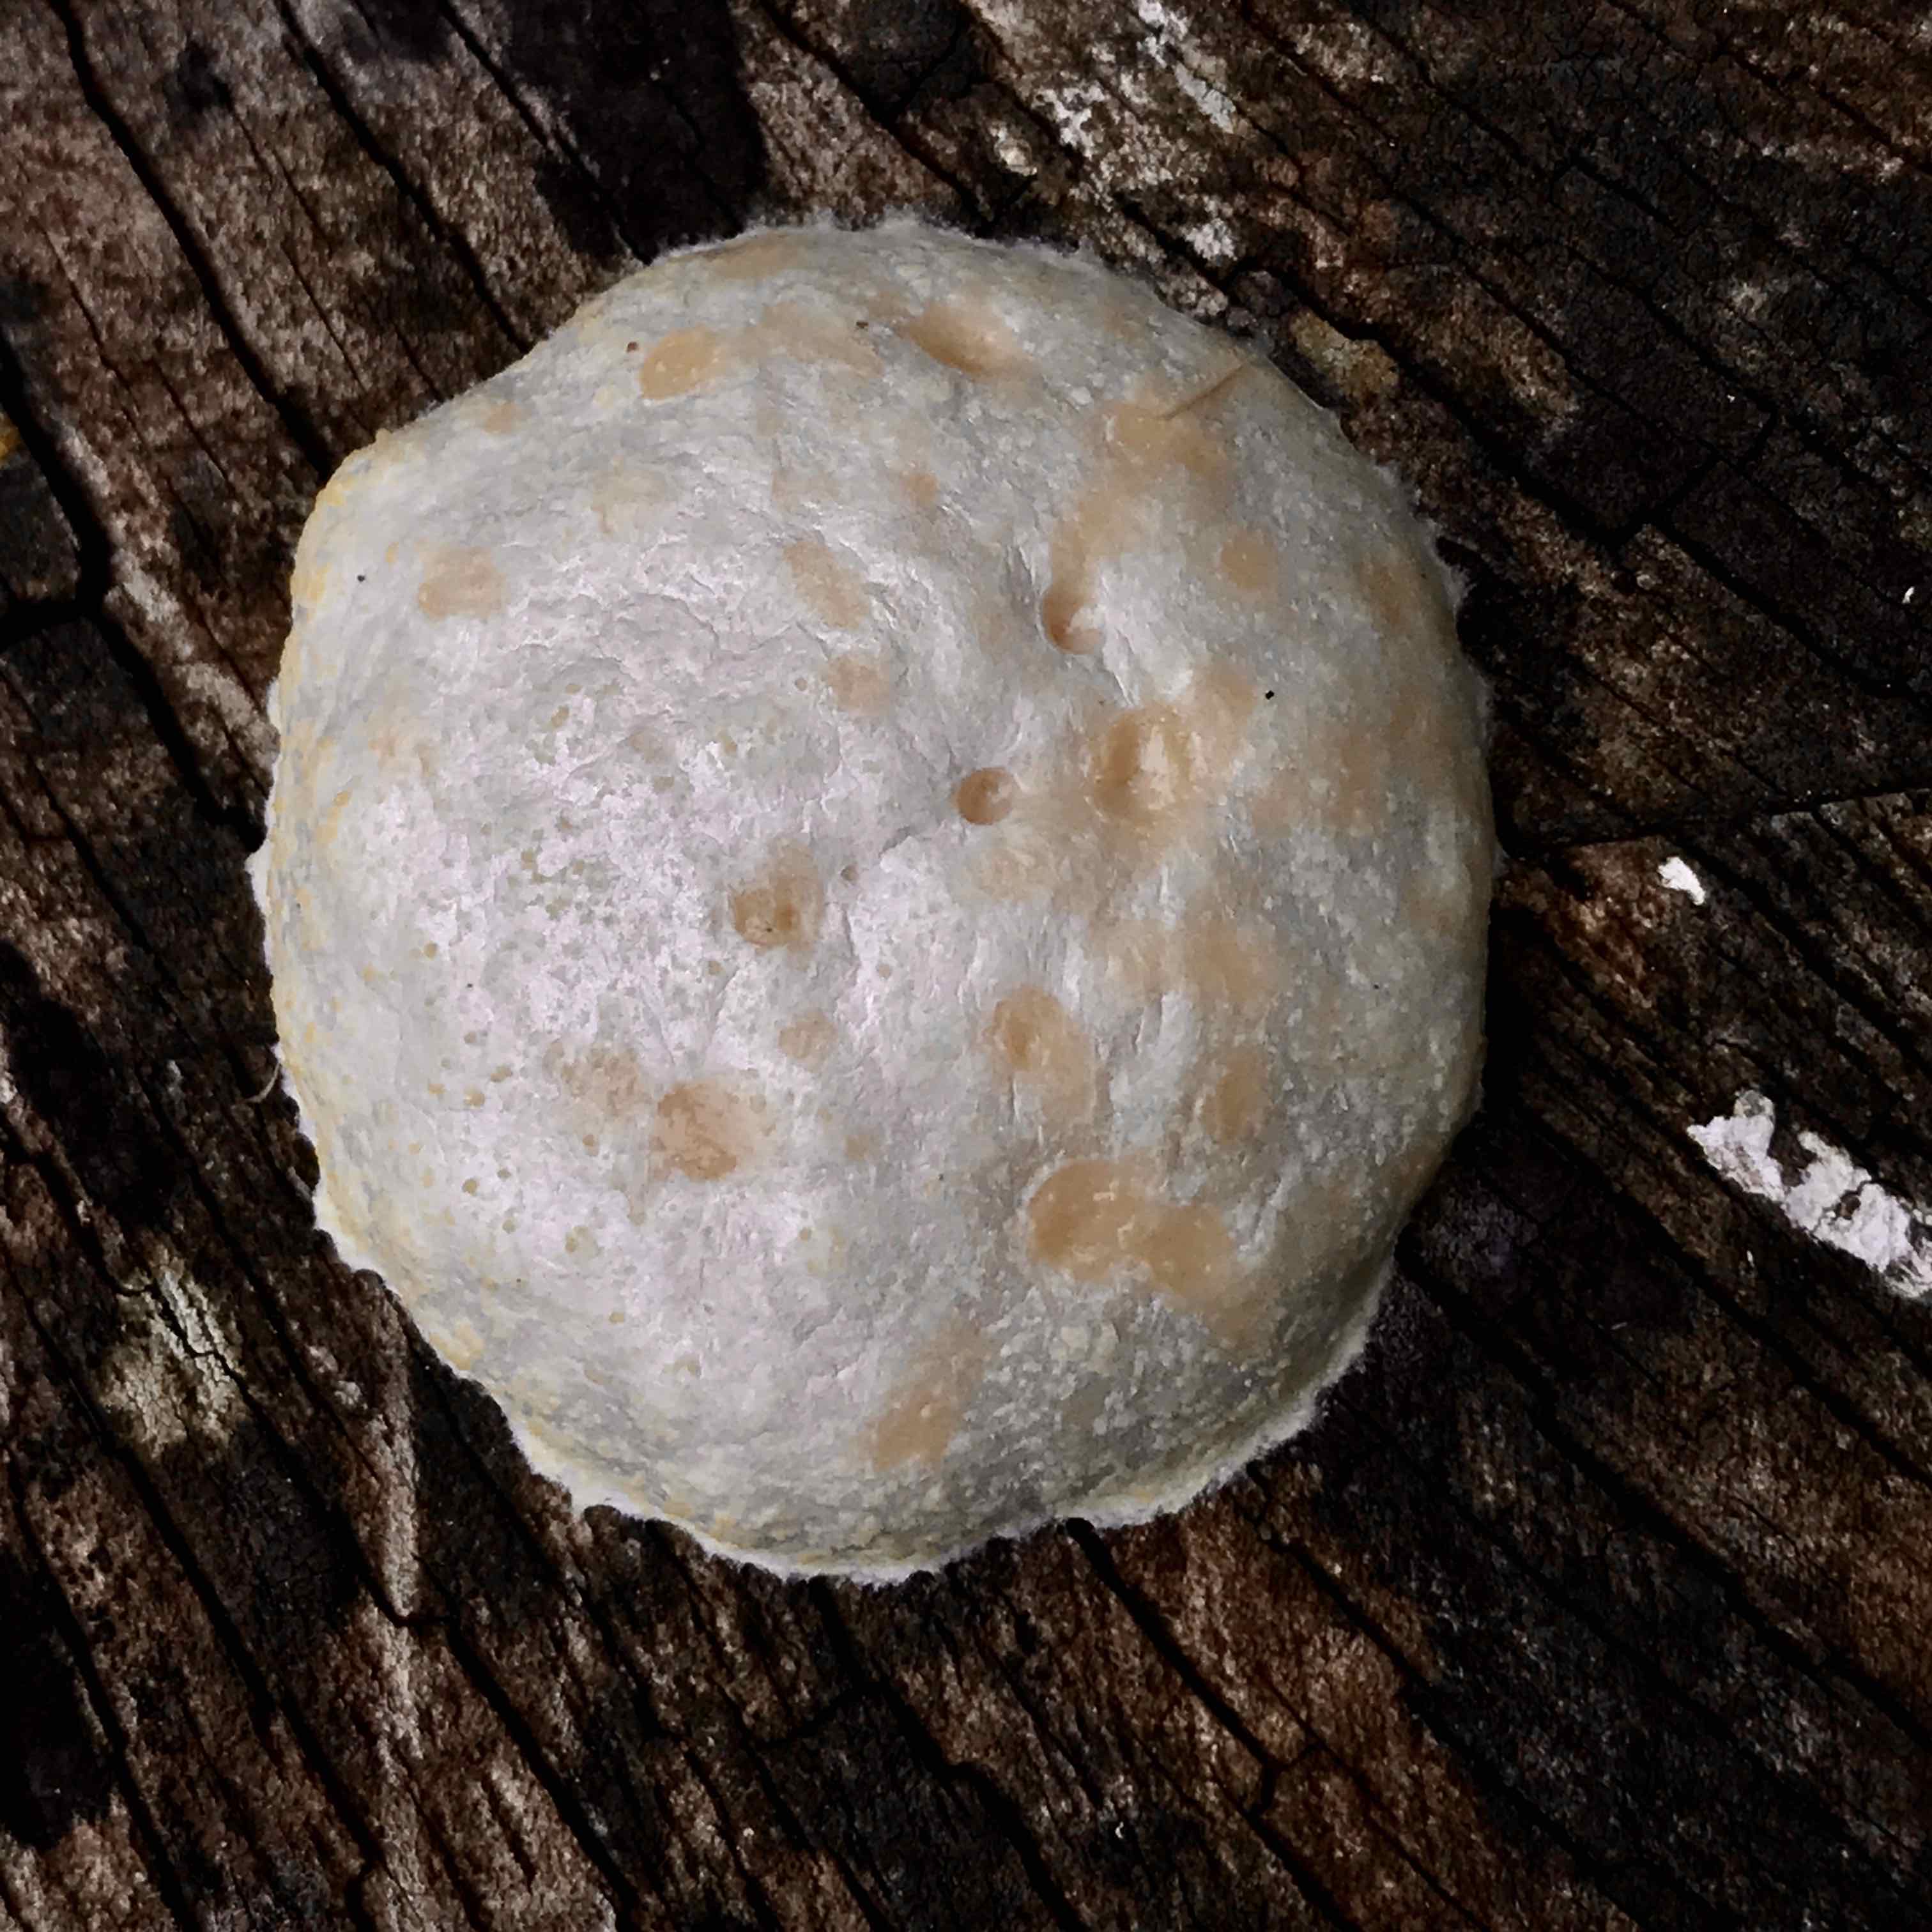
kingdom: Protozoa
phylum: Mycetozoa
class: Myxomycetes
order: Cribrariales
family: Tubiferaceae
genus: Reticularia
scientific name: Reticularia lycoperdon
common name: skinnende støvpude
